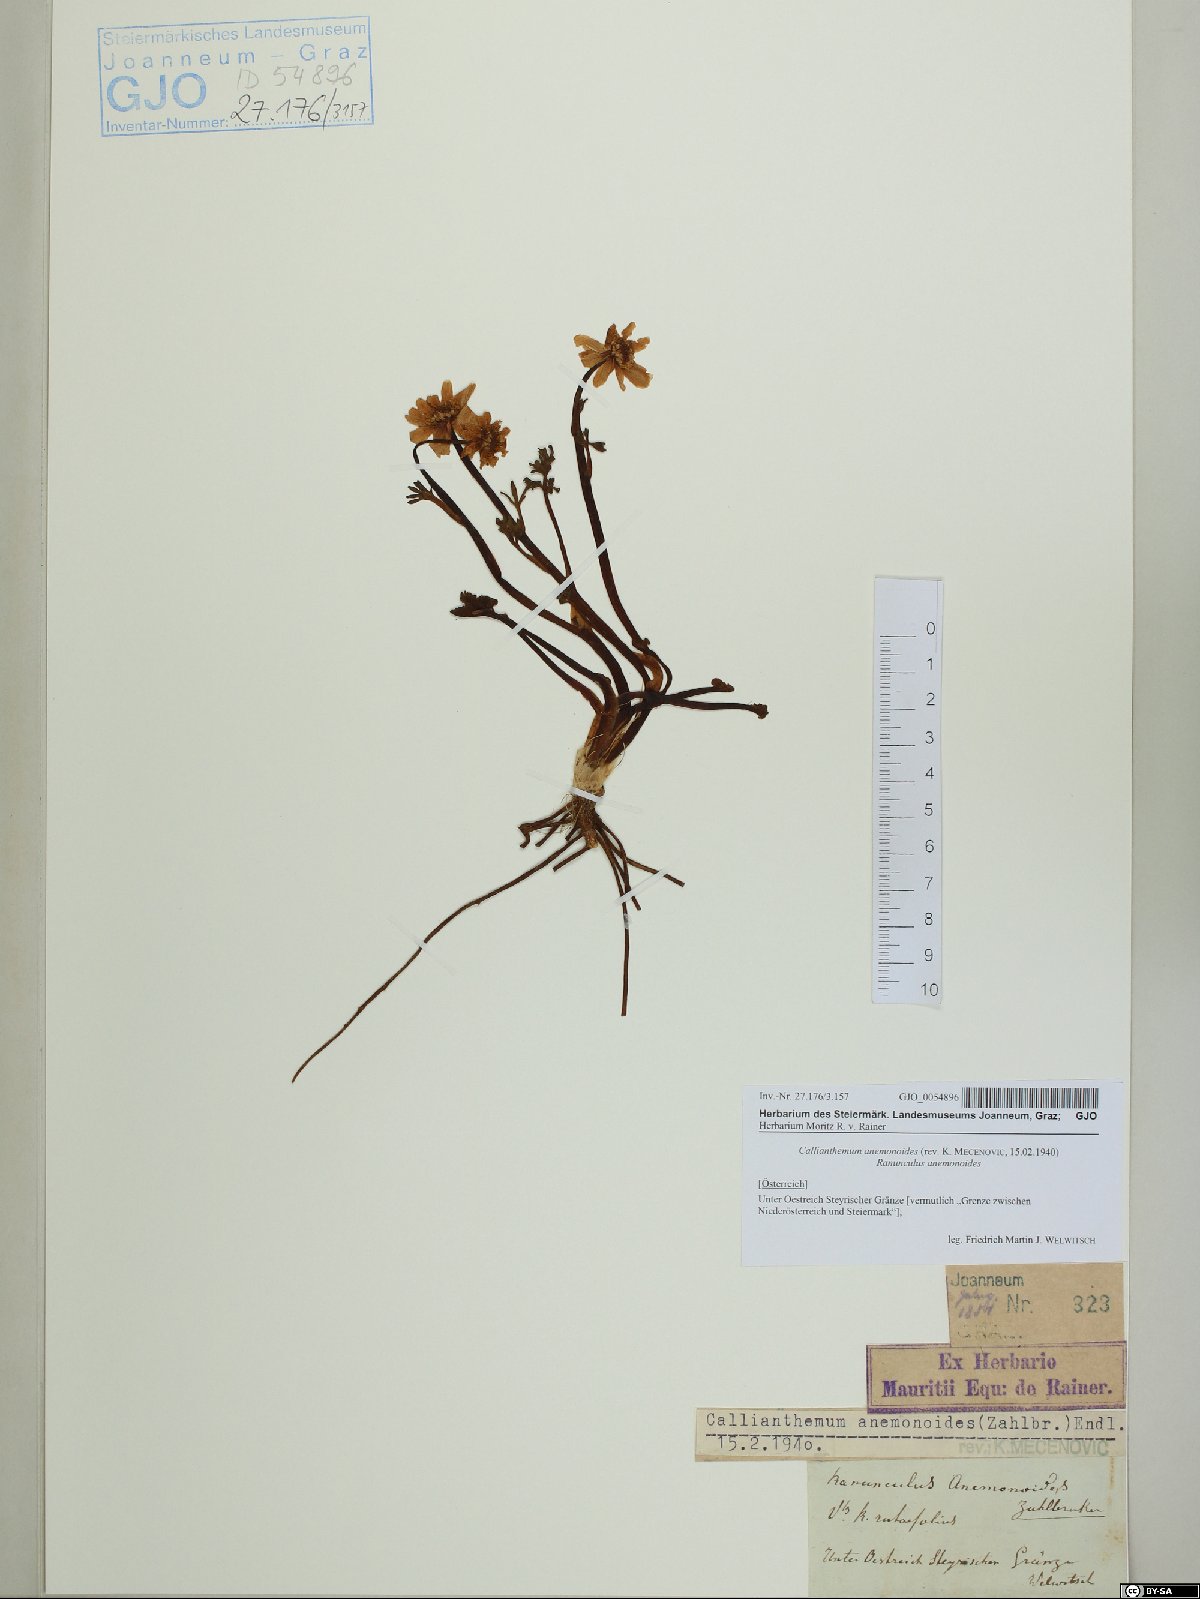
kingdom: Plantae
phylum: Tracheophyta
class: Magnoliopsida
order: Ranunculales
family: Ranunculaceae
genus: Callianthemum
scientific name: Callianthemum anemonoides
